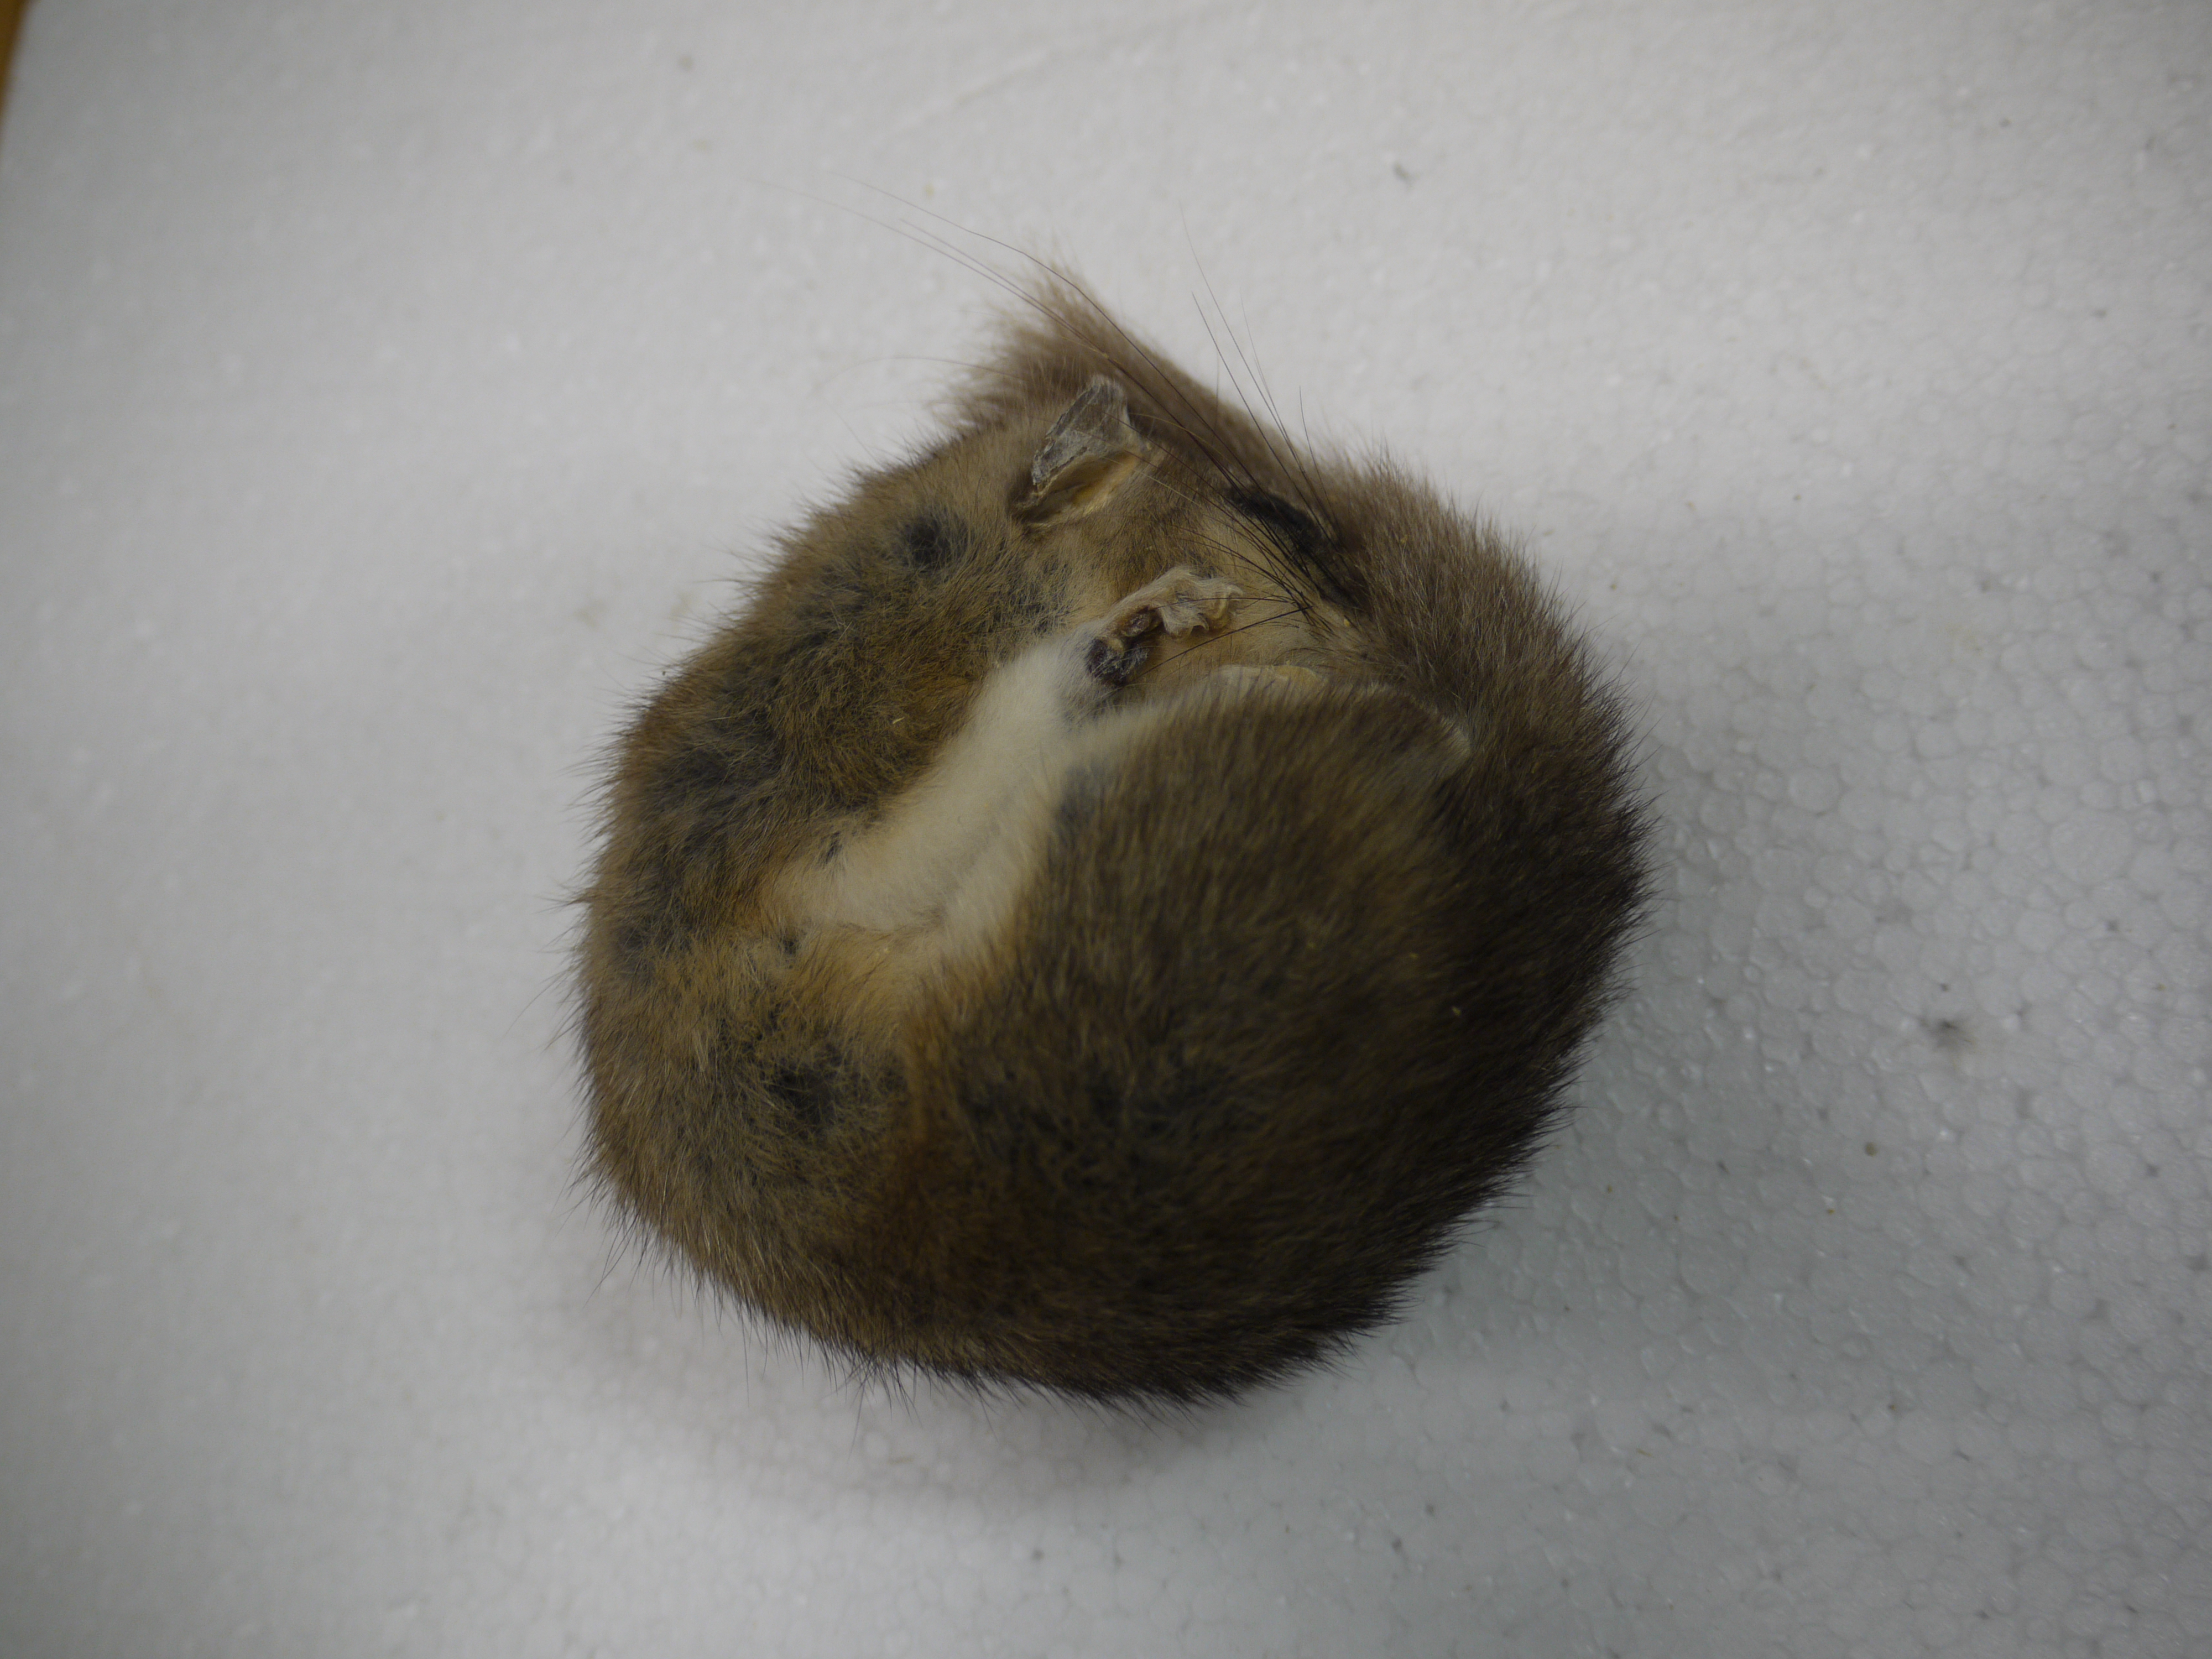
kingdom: Animalia
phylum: Chordata
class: Mammalia
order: Rodentia
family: Gliridae
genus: Glis
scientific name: Glis glis
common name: Fat dormouse
